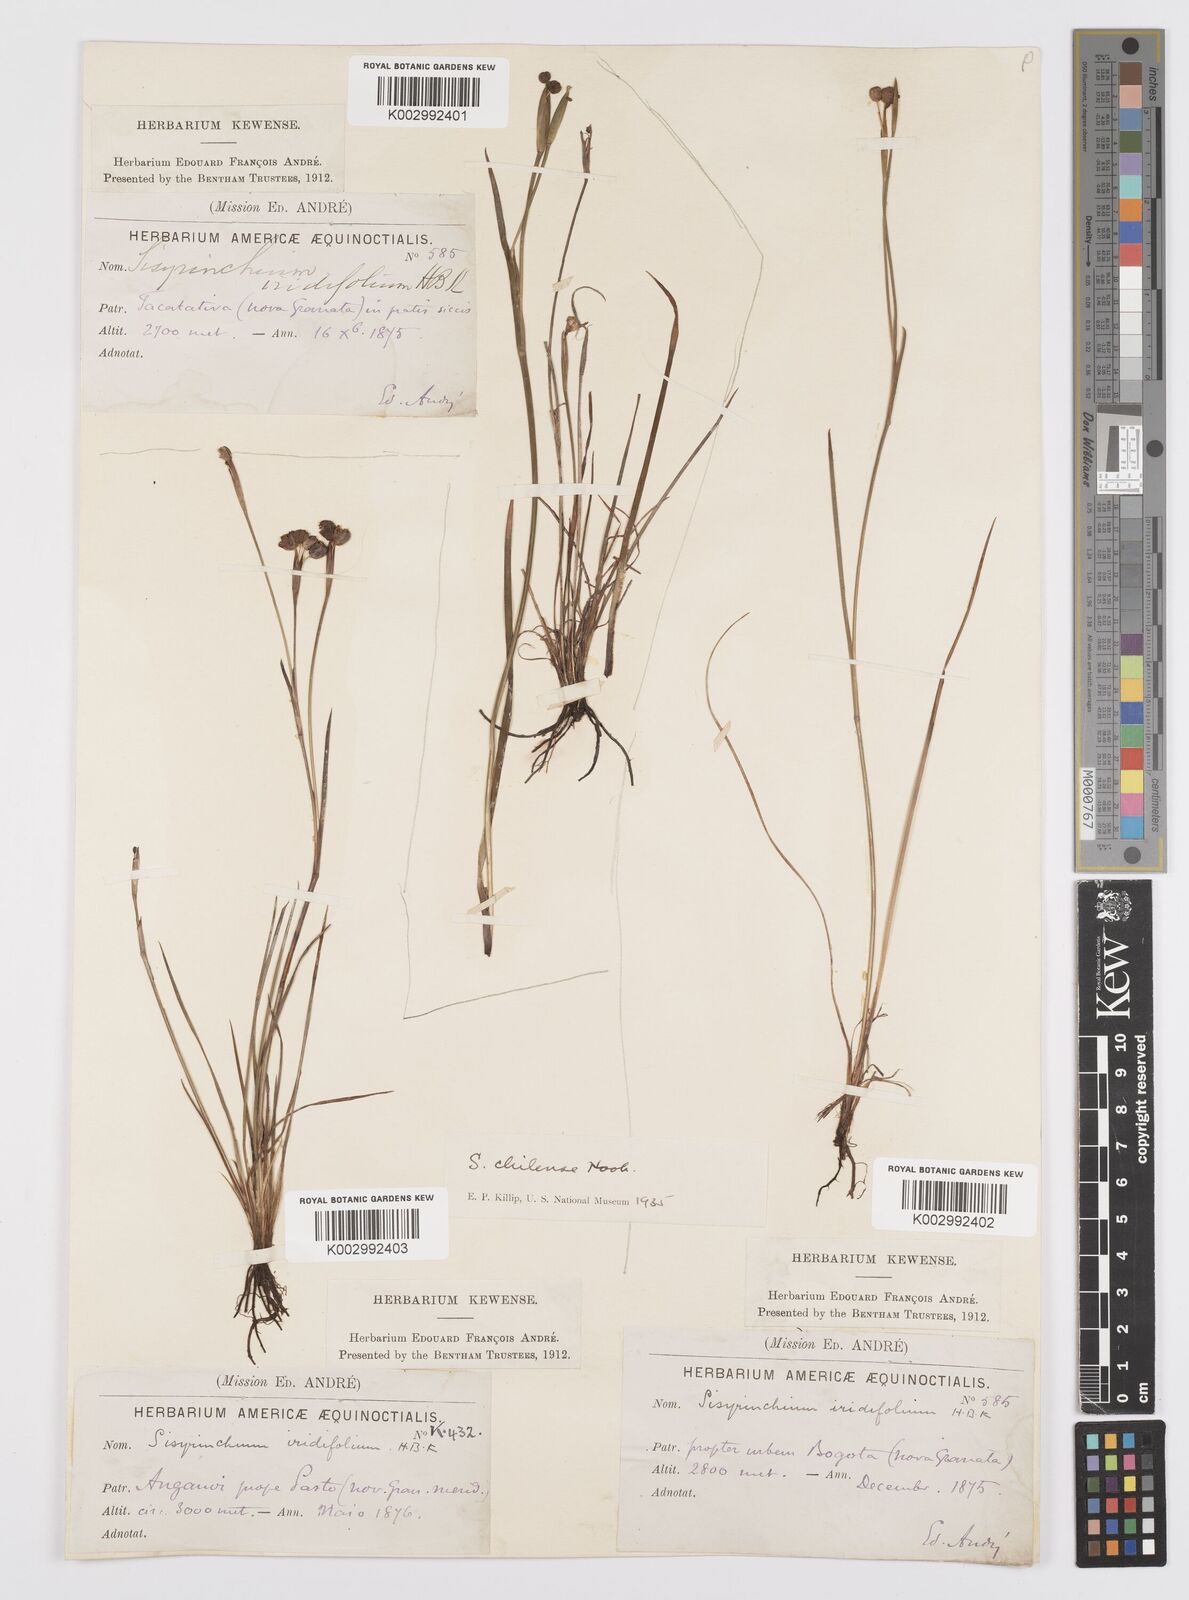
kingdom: Plantae
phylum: Tracheophyta
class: Liliopsida
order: Asparagales
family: Iridaceae
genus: Sisyrinchium
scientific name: Sisyrinchium chilense
